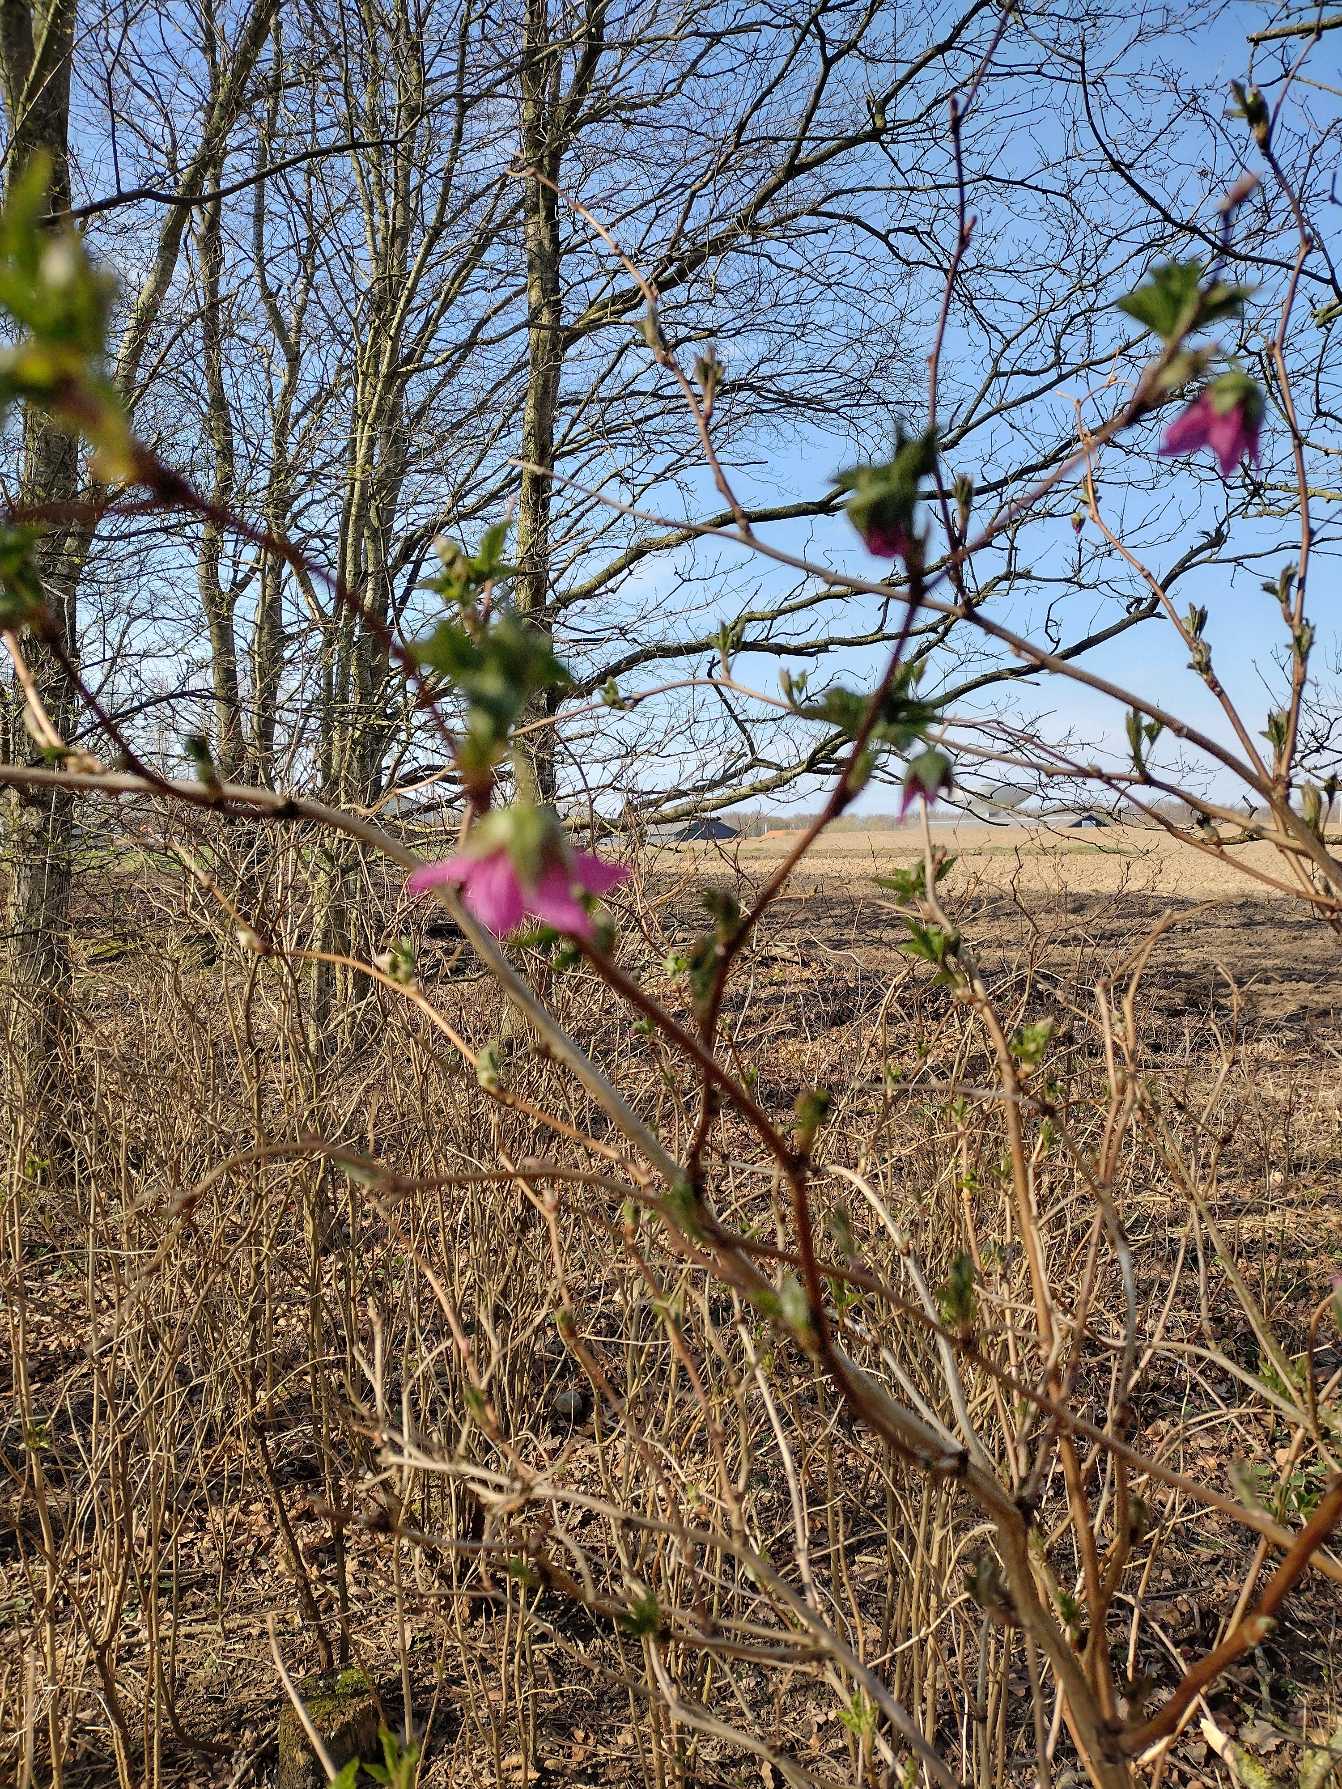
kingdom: Plantae
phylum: Tracheophyta
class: Magnoliopsida
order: Rosales
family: Rosaceae
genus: Rubus
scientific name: Rubus spectabilis
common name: Laksebær
